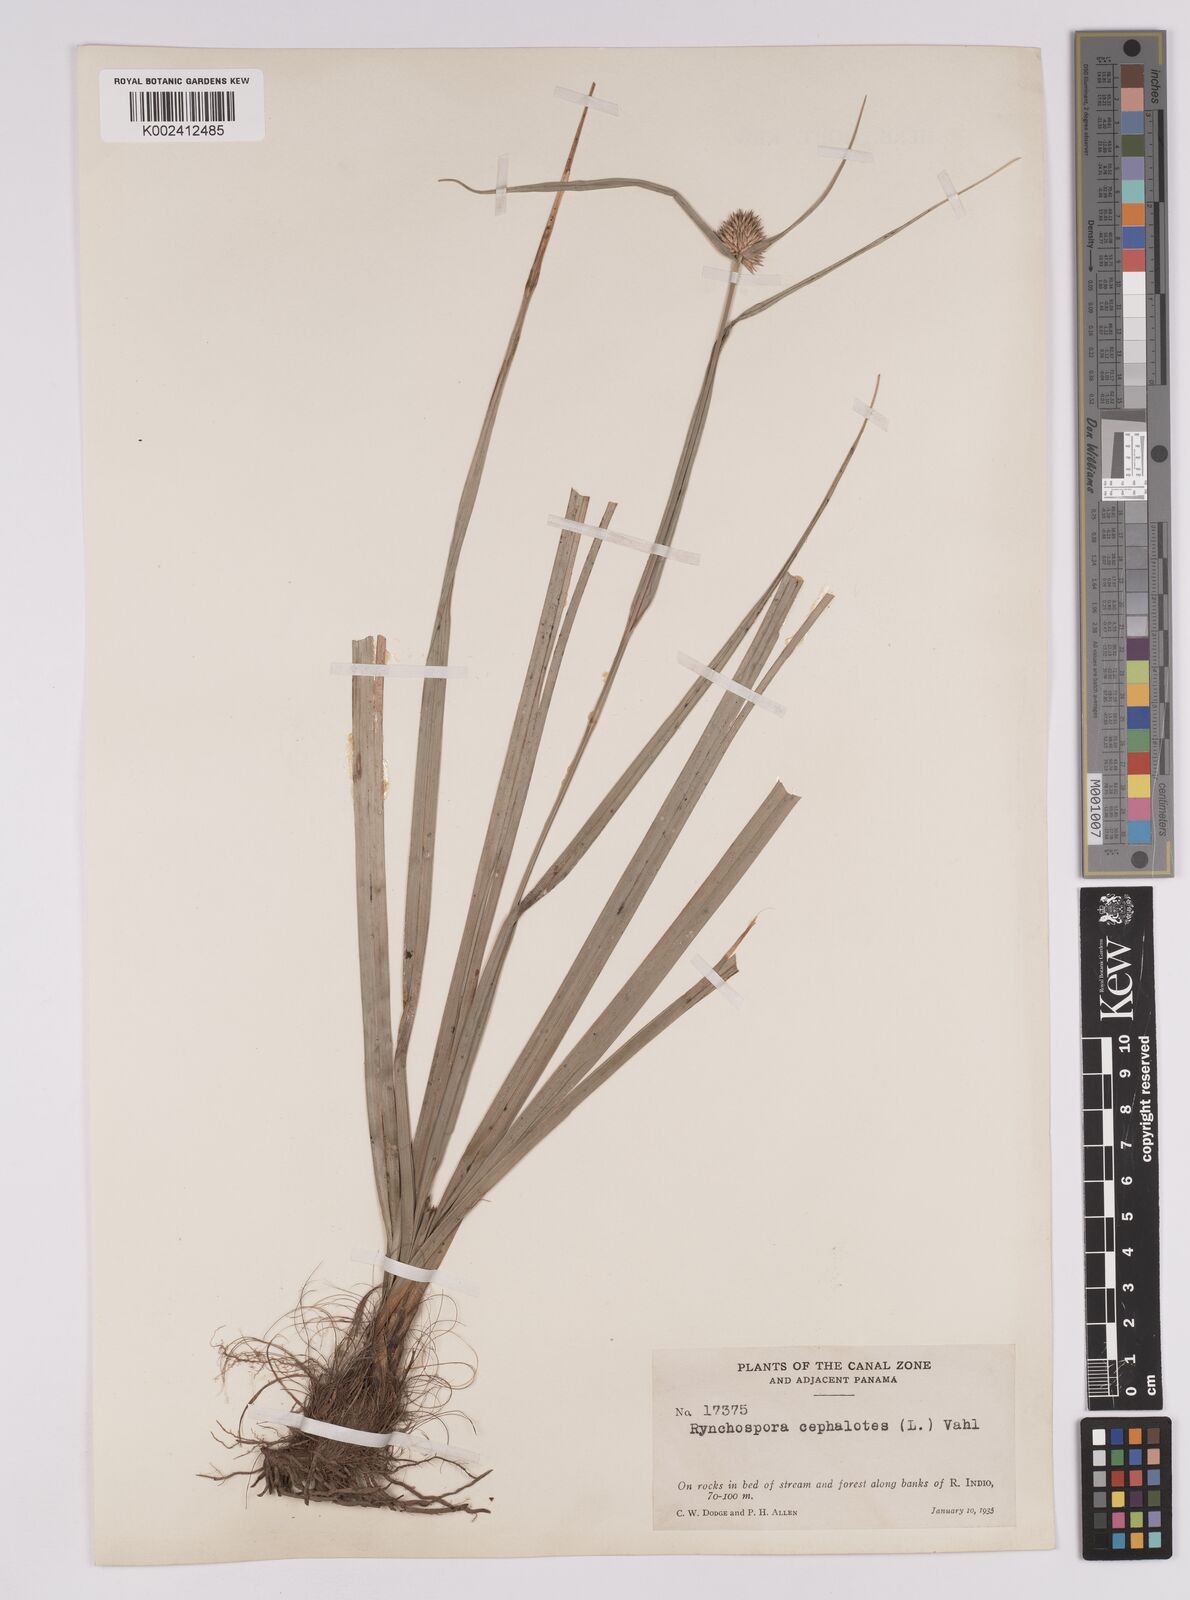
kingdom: Plantae
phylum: Tracheophyta
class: Liliopsida
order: Poales
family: Cyperaceae
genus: Rhynchospora
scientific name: Rhynchospora cephalotes
